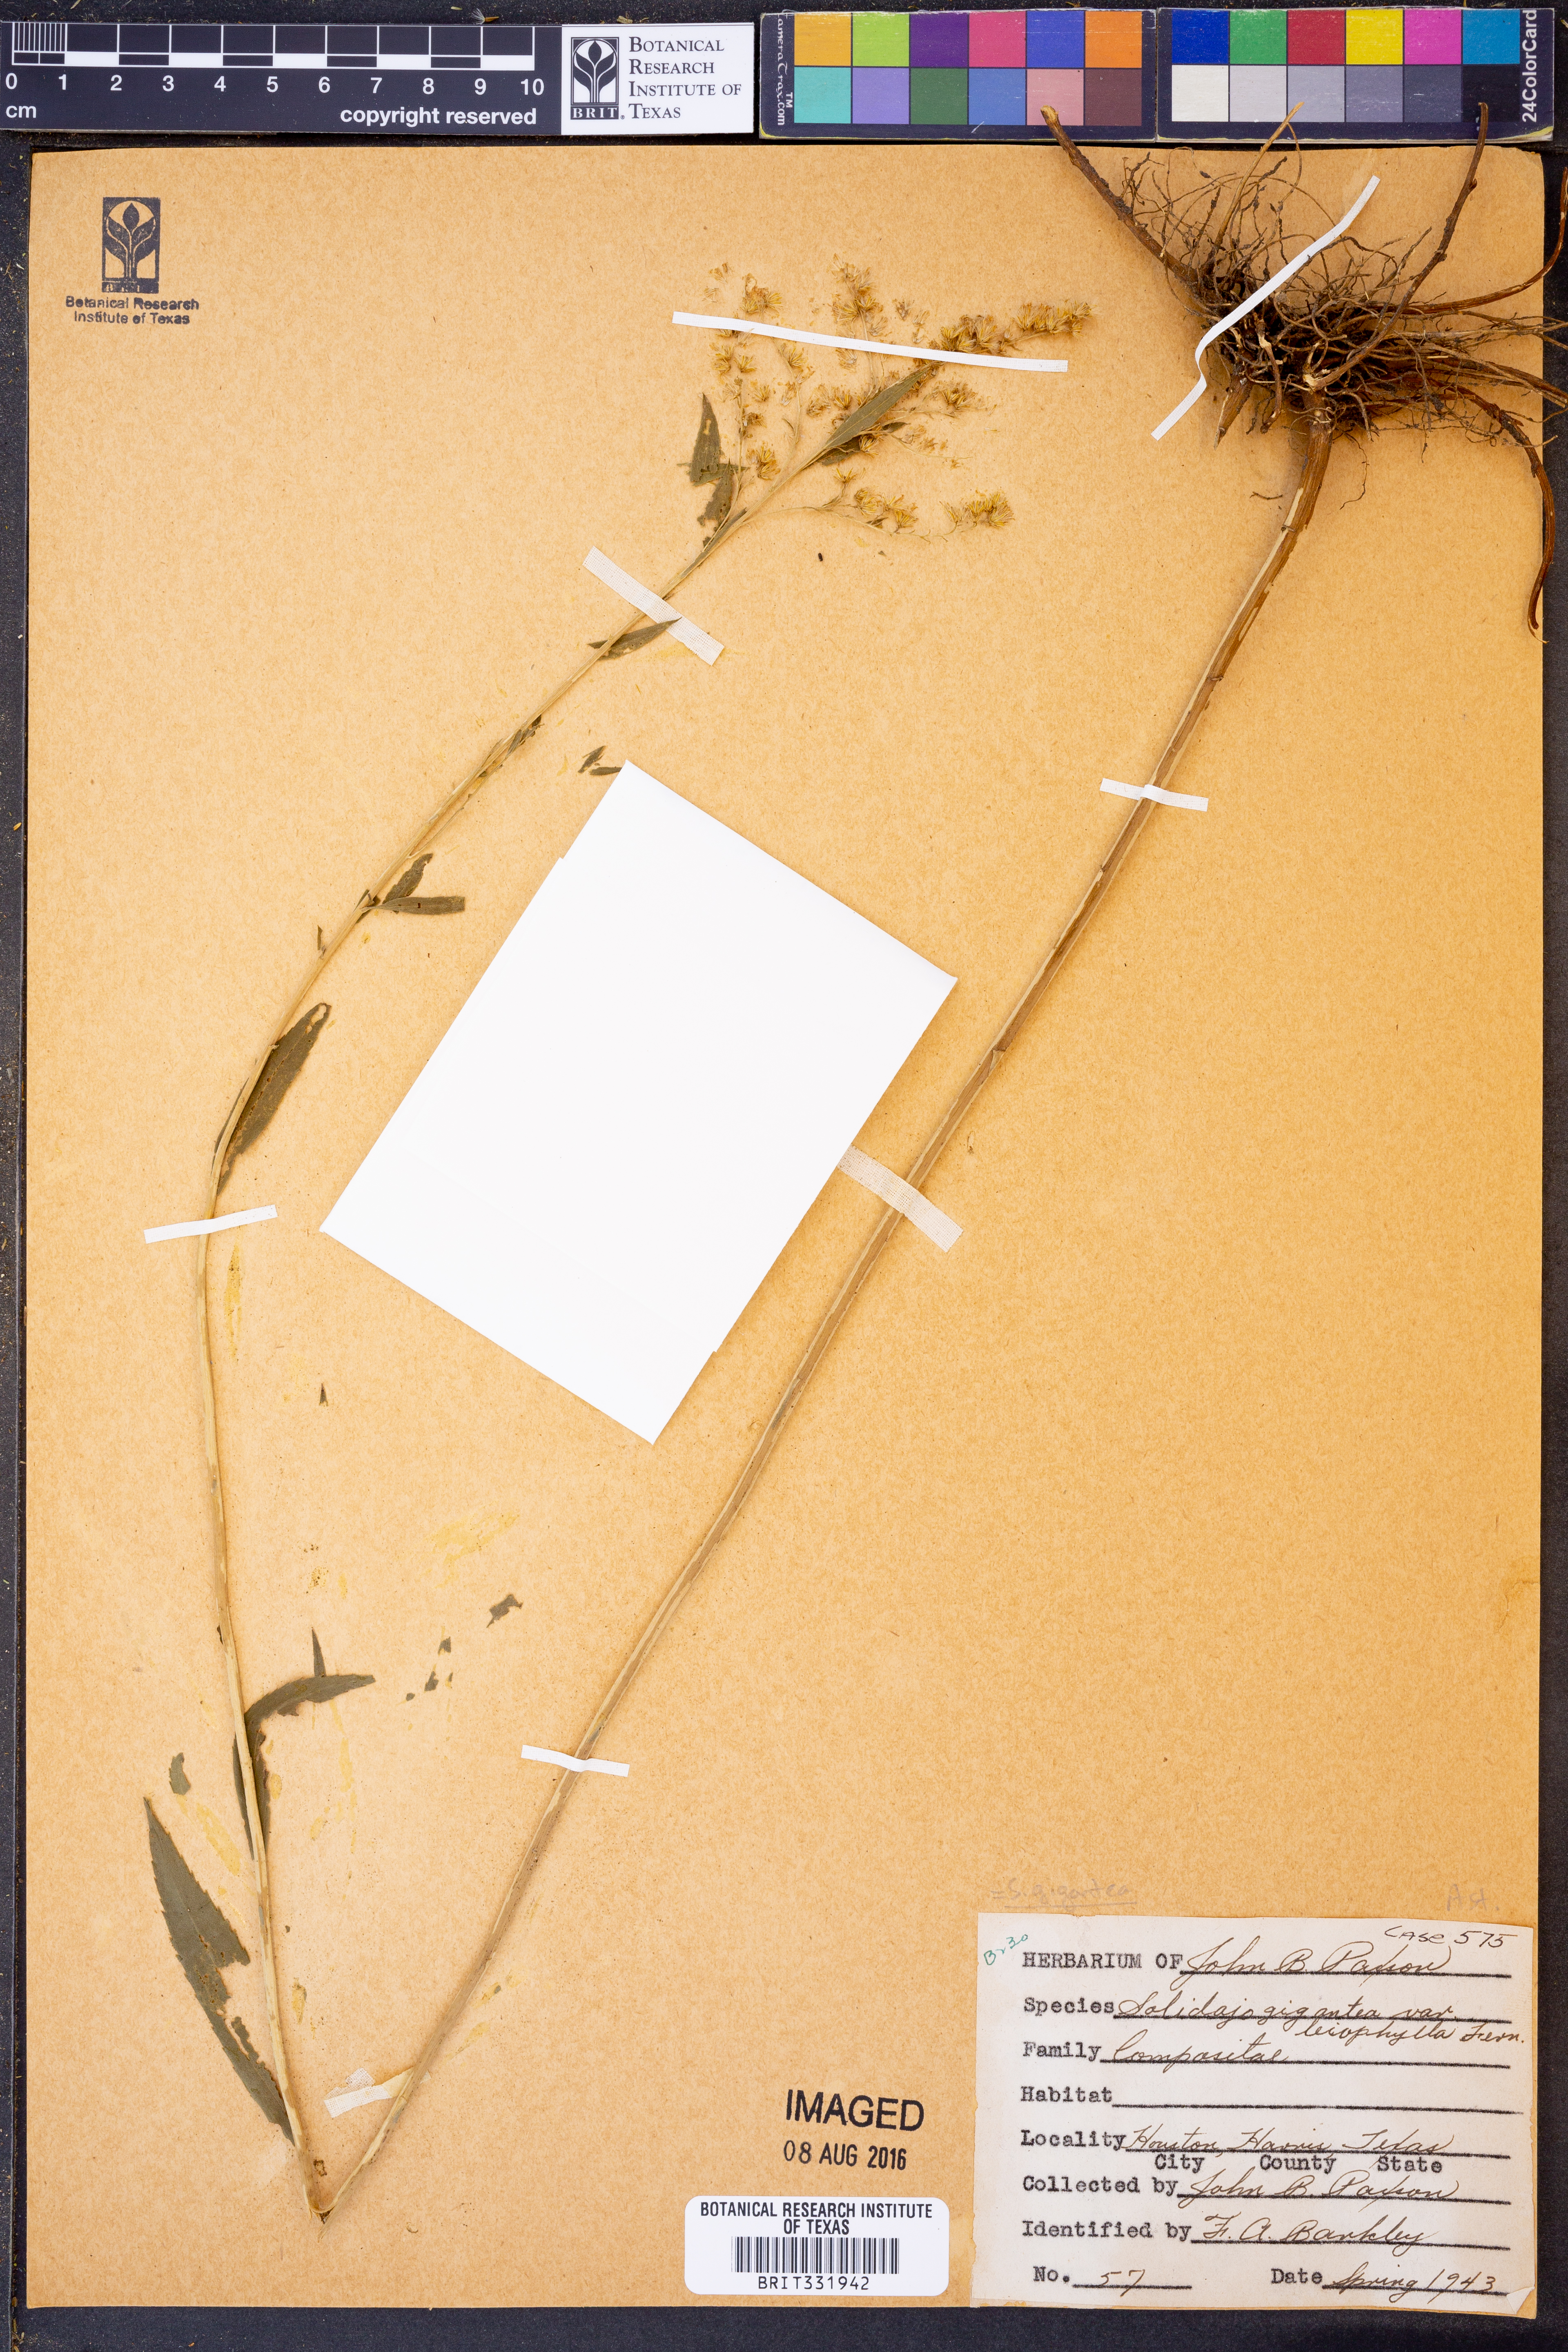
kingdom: Plantae
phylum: Tracheophyta
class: Magnoliopsida
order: Asterales
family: Asteraceae
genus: Solidago
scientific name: Solidago gigantea
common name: Giant goldenrod
